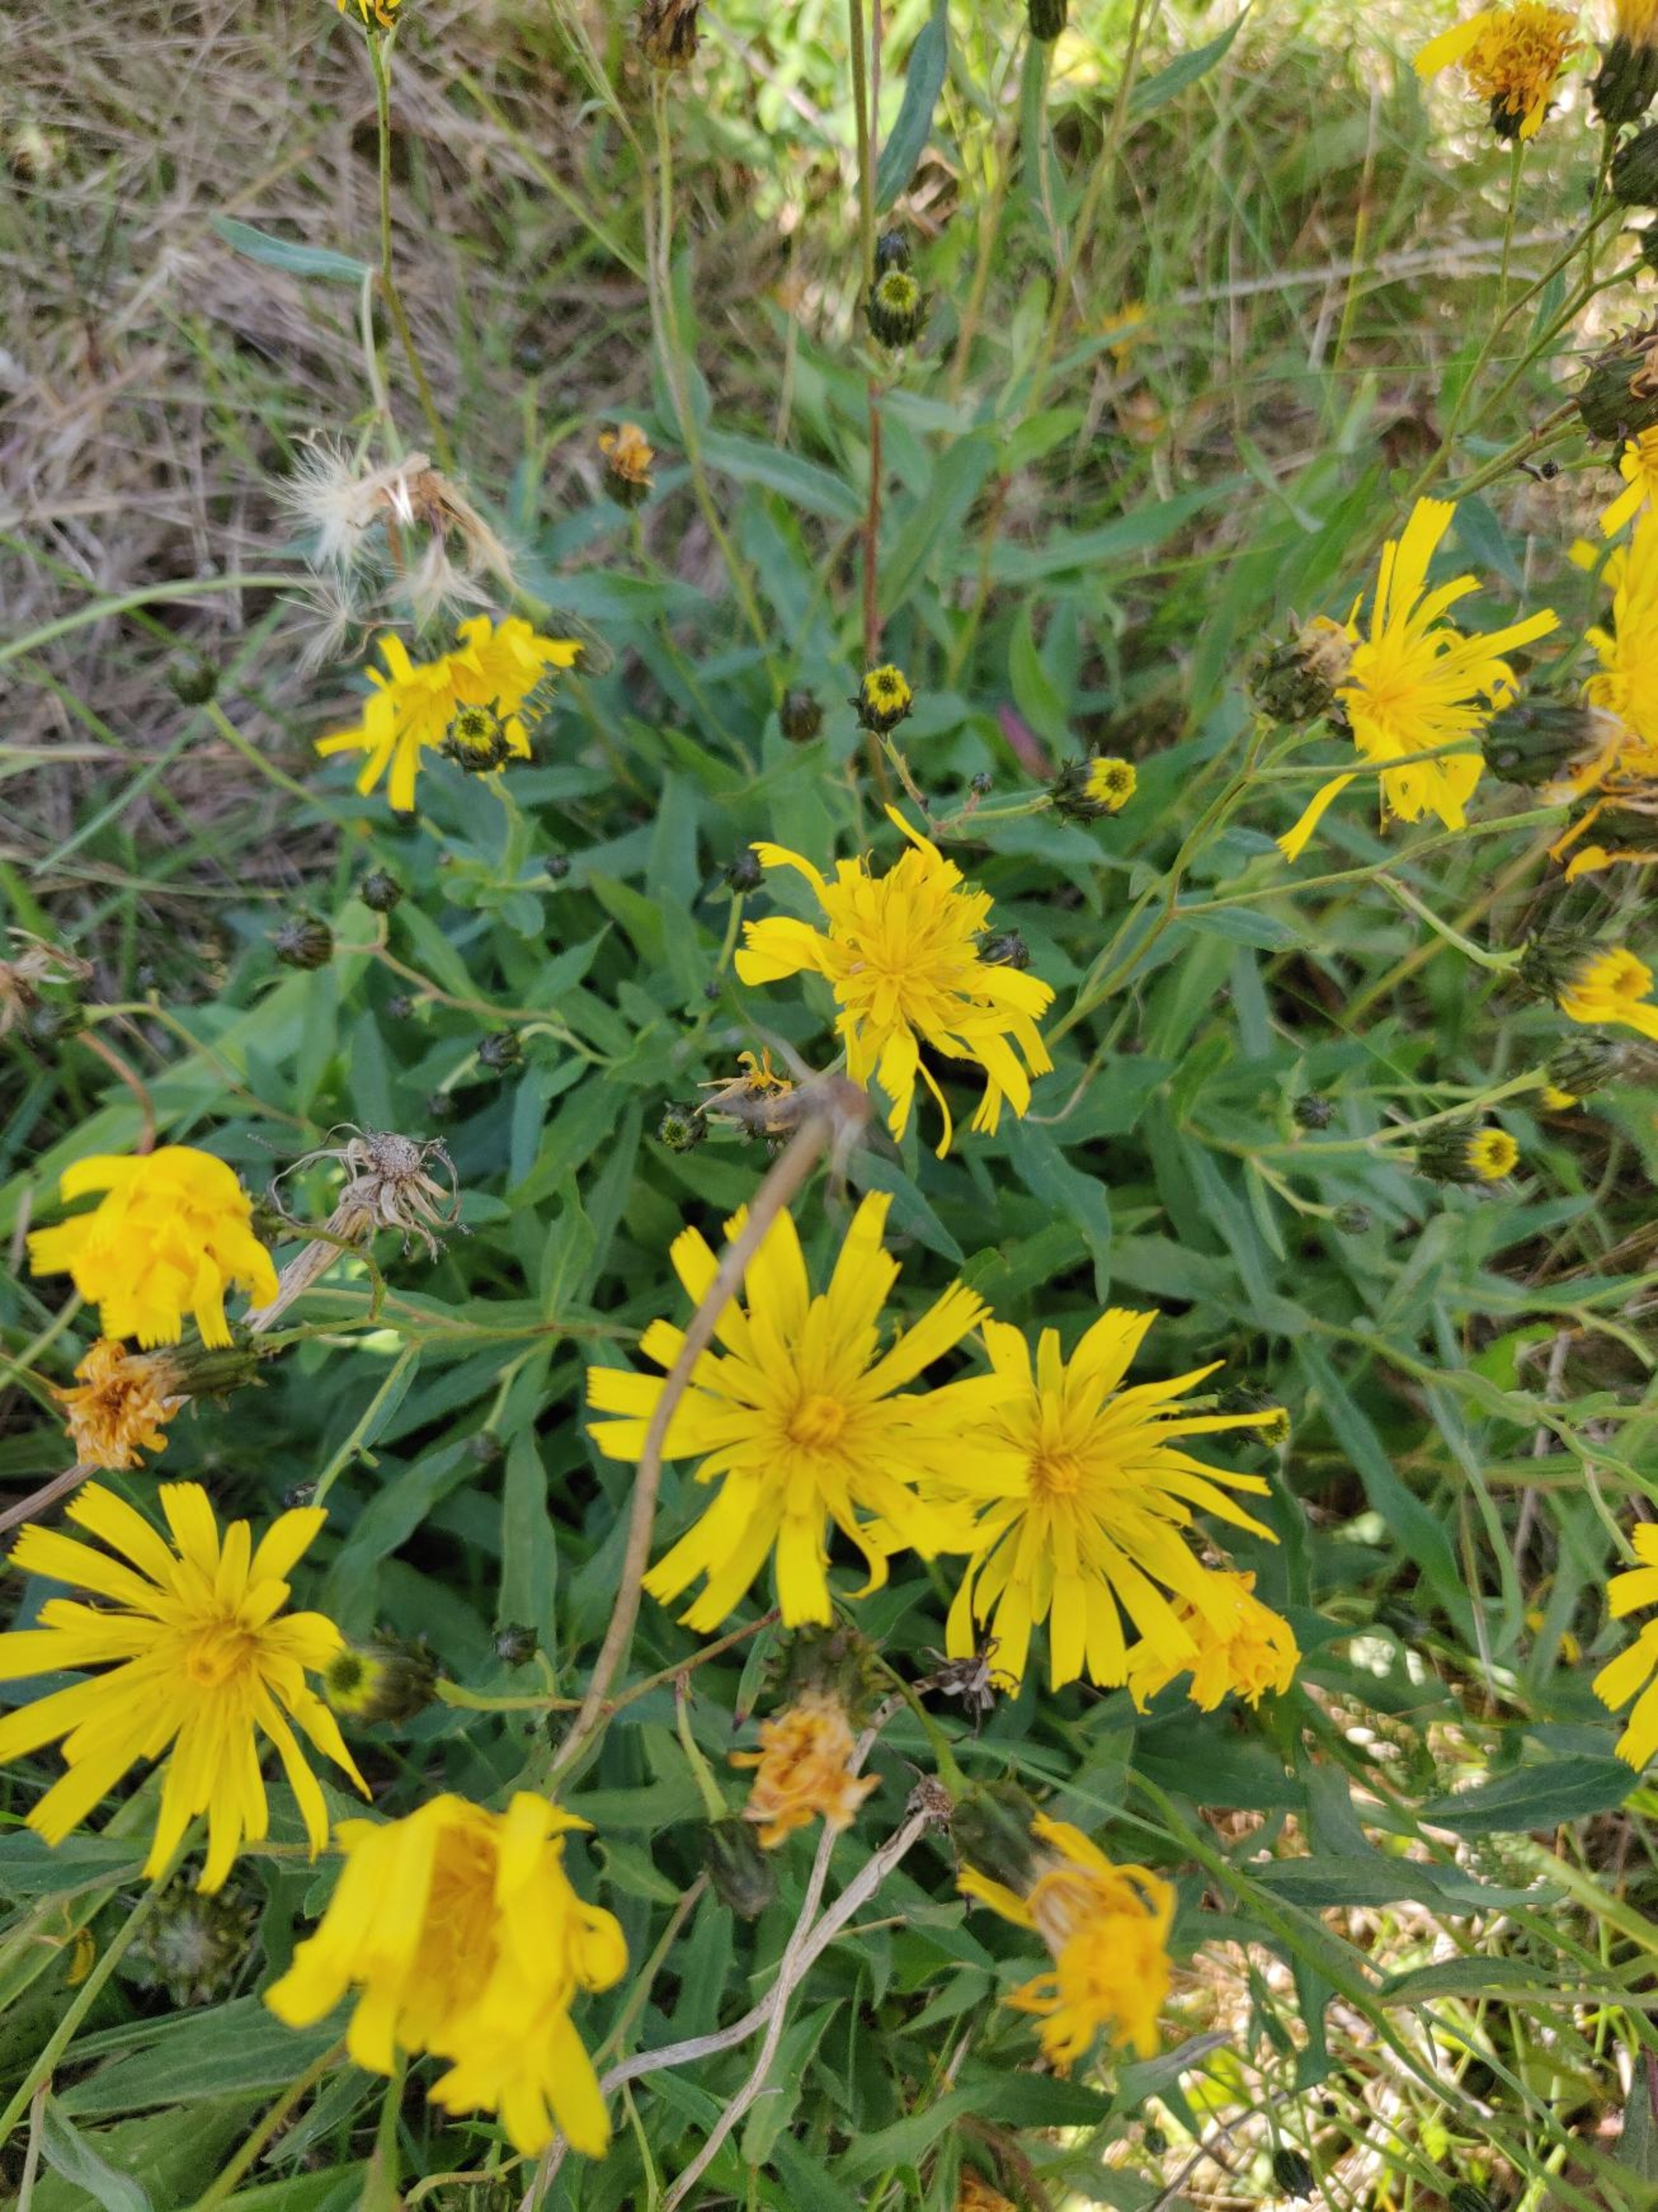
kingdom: Plantae
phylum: Tracheophyta
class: Magnoliopsida
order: Asterales
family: Asteraceae
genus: Hieracium
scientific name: Hieracium umbellatum
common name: Smalbladet høgeurt
